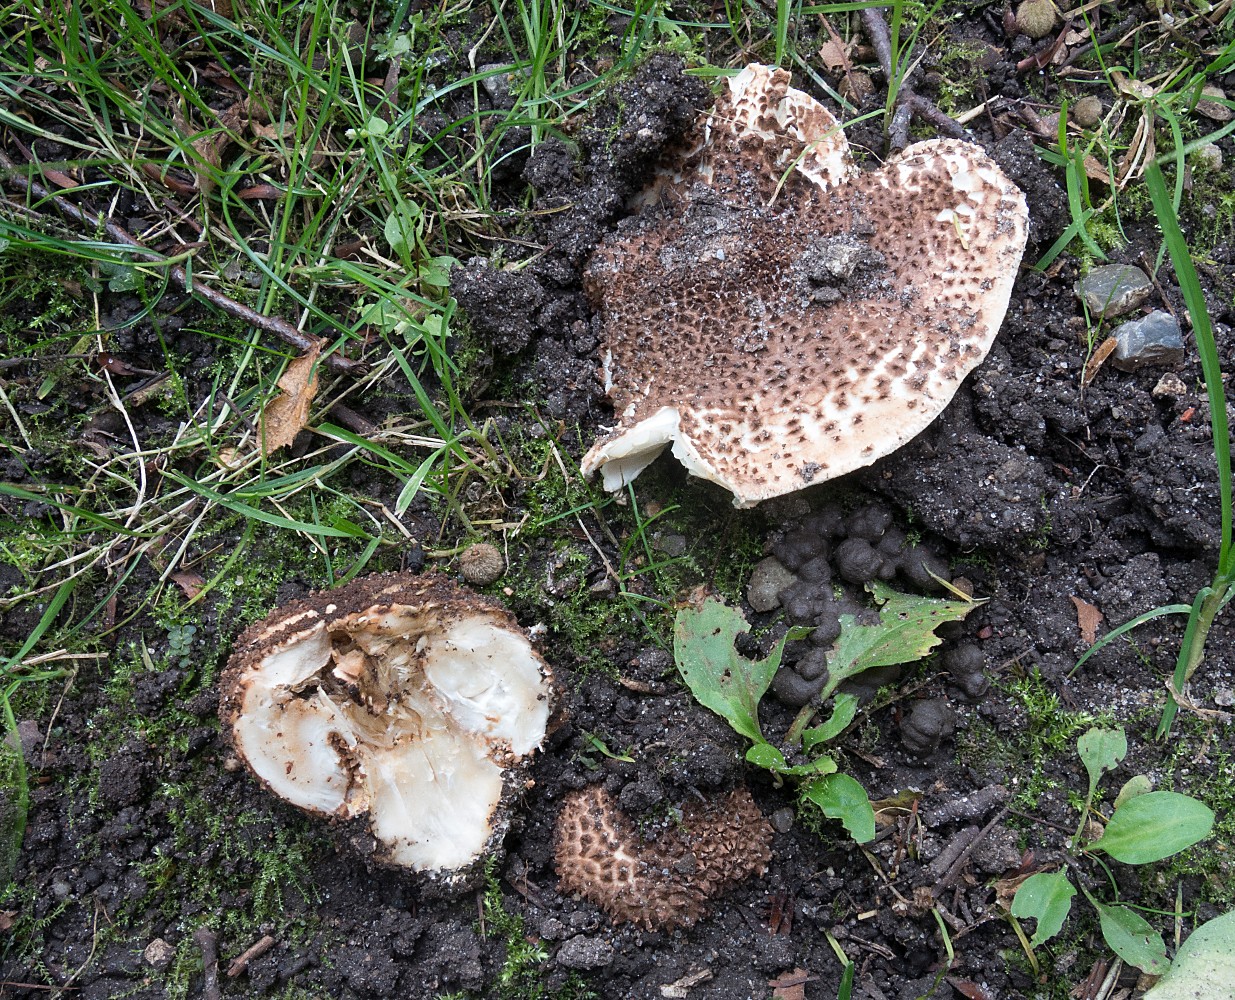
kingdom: Fungi
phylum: Basidiomycota
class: Agaricomycetes
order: Agaricales
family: Agaricaceae
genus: Echinoderma
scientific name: Echinoderma asperum
